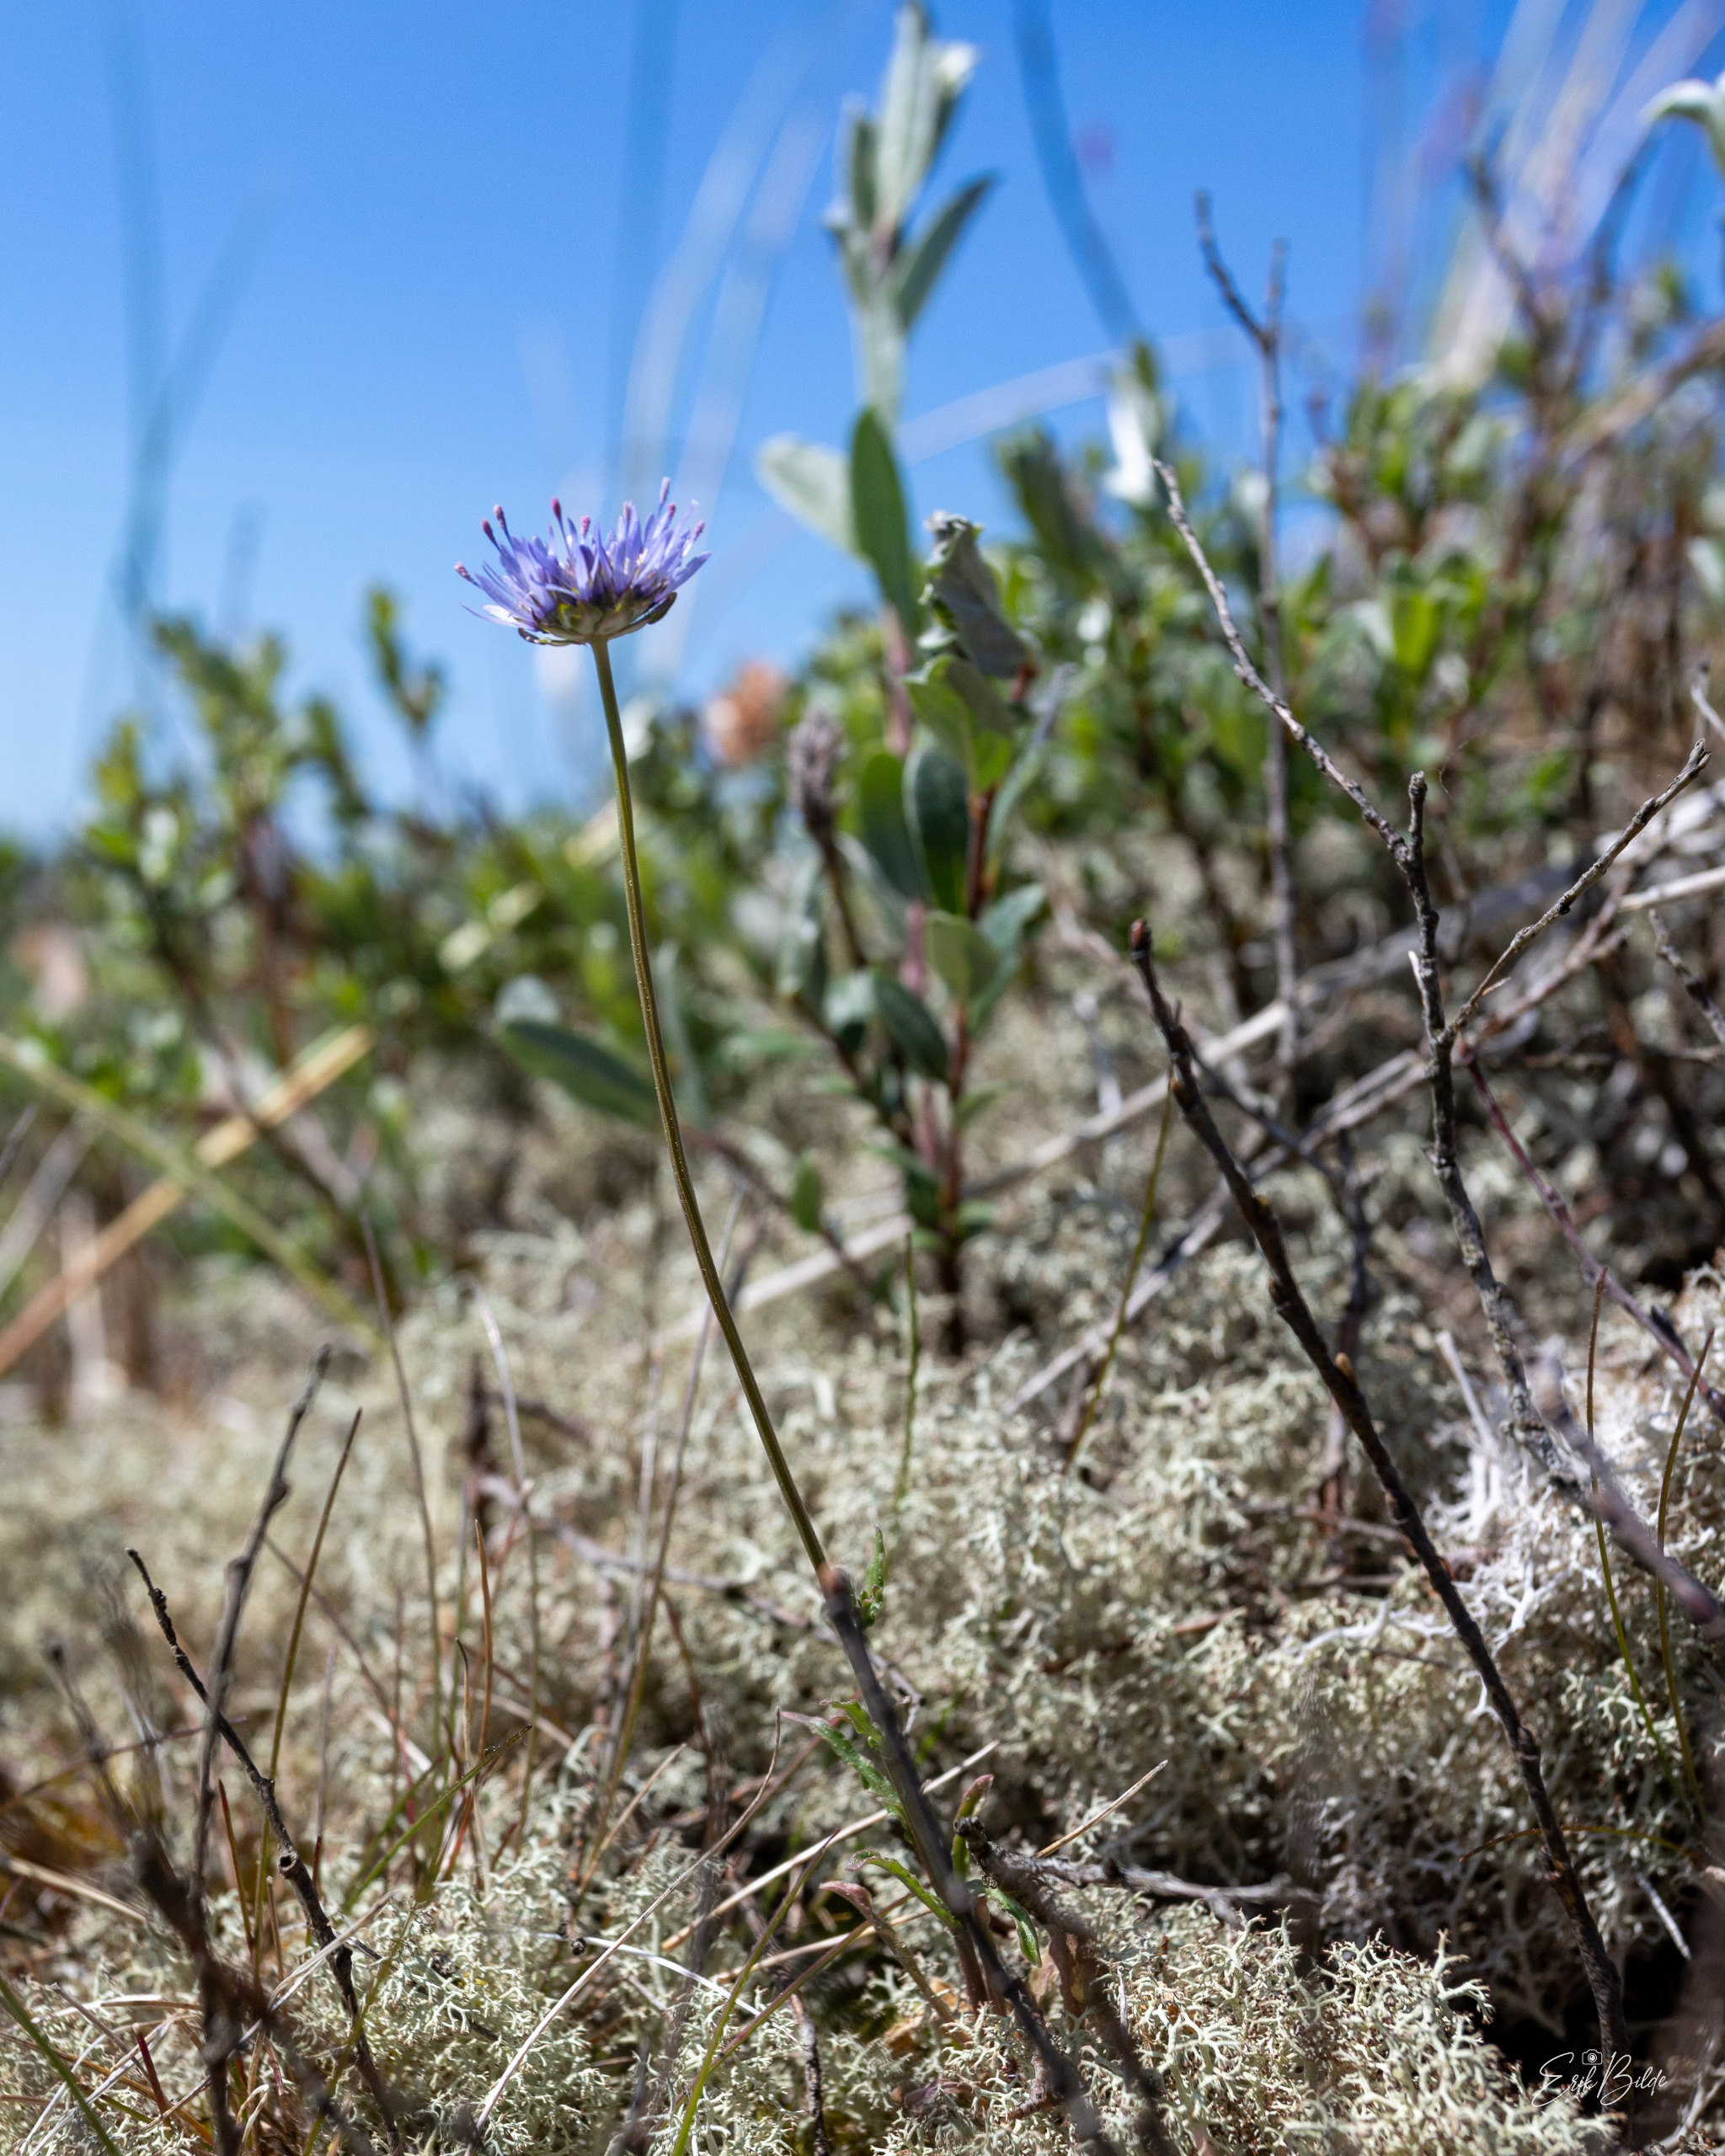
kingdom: Plantae
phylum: Tracheophyta
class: Magnoliopsida
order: Asterales
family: Campanulaceae
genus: Jasione
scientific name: Jasione montana
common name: Blåmunke
